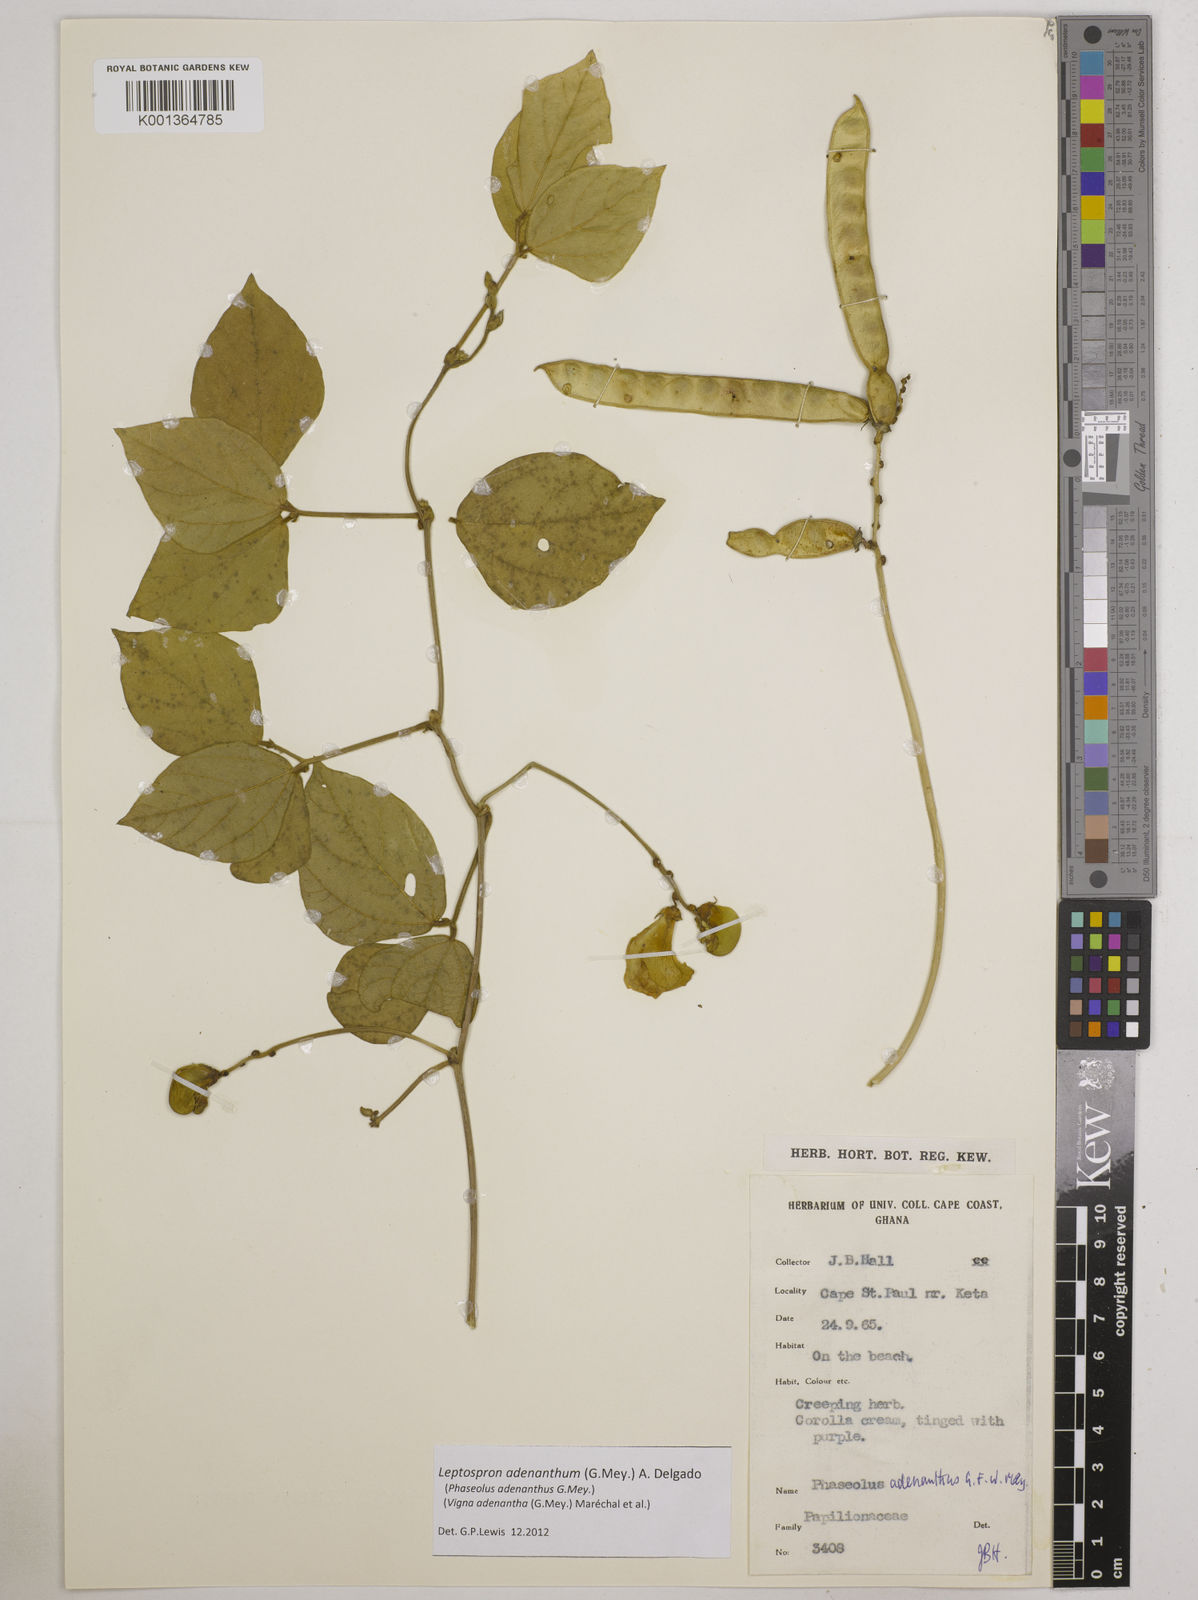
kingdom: Plantae
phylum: Tracheophyta
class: Magnoliopsida
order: Fabales
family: Fabaceae
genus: Leptospron
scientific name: Leptospron adenanthum
